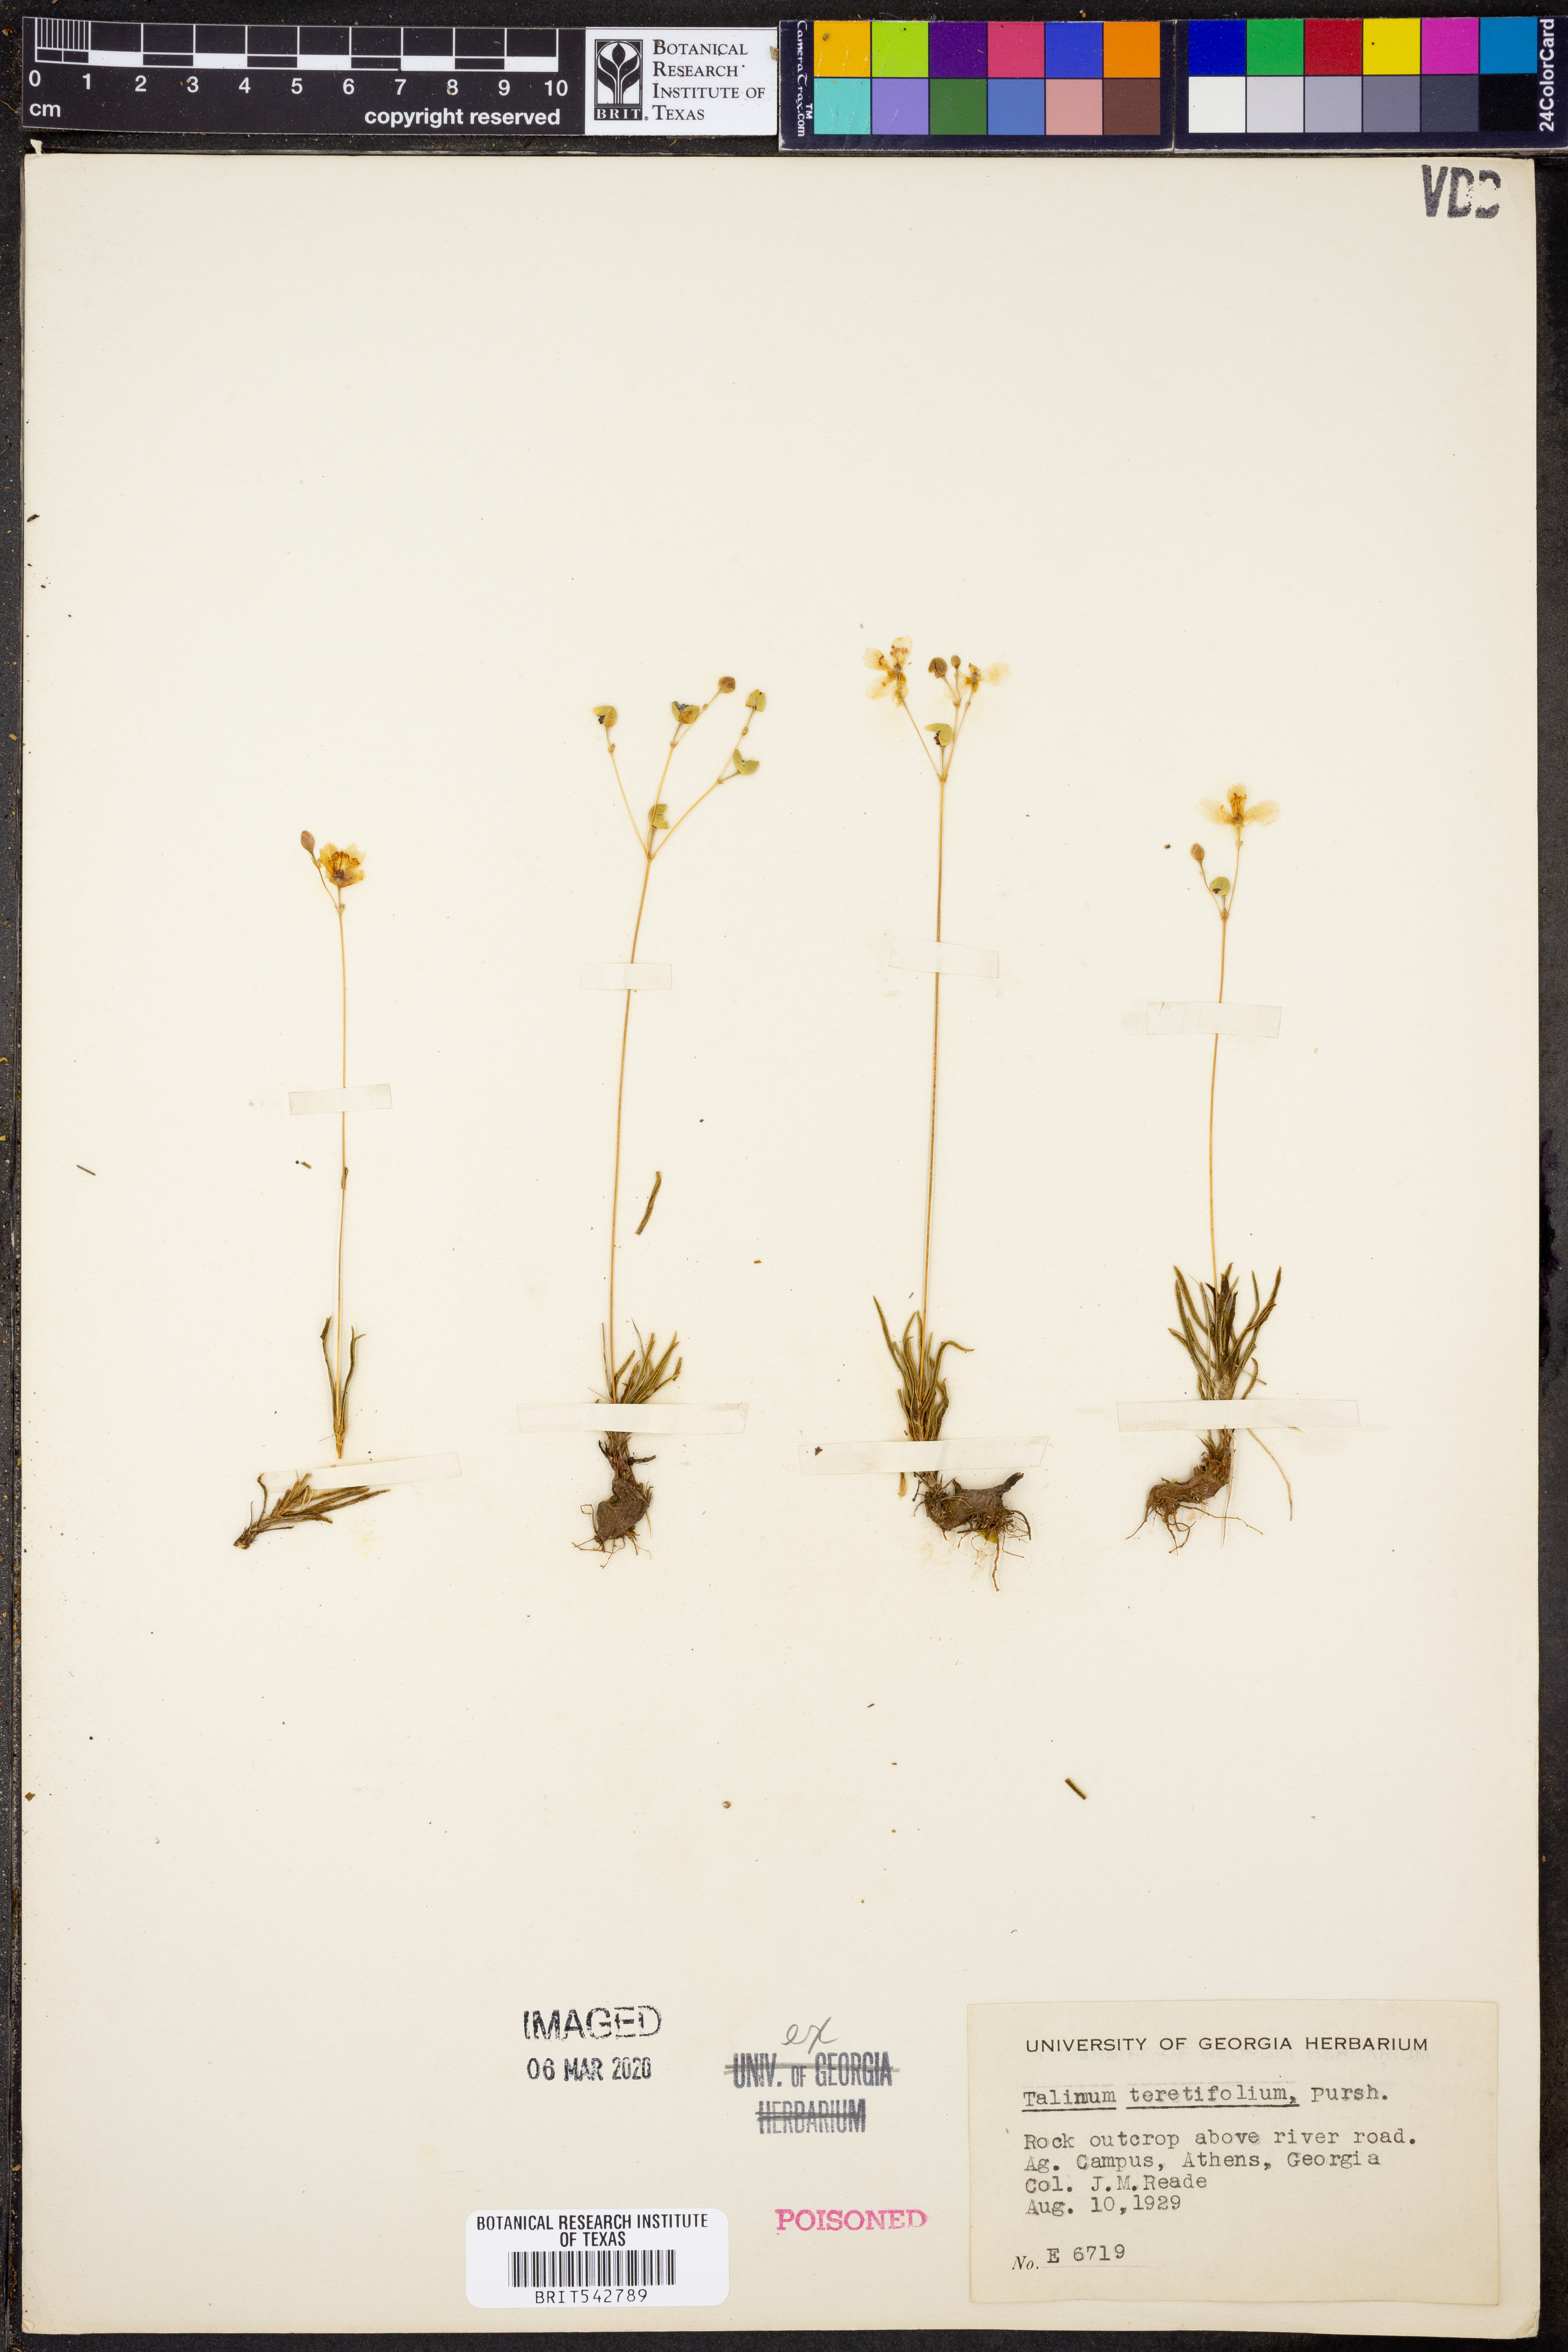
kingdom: Plantae
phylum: Tracheophyta
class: Magnoliopsida
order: Caryophyllales
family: Montiaceae
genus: Phemeranthus
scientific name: Phemeranthus teretifolius
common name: Quill fameflower
